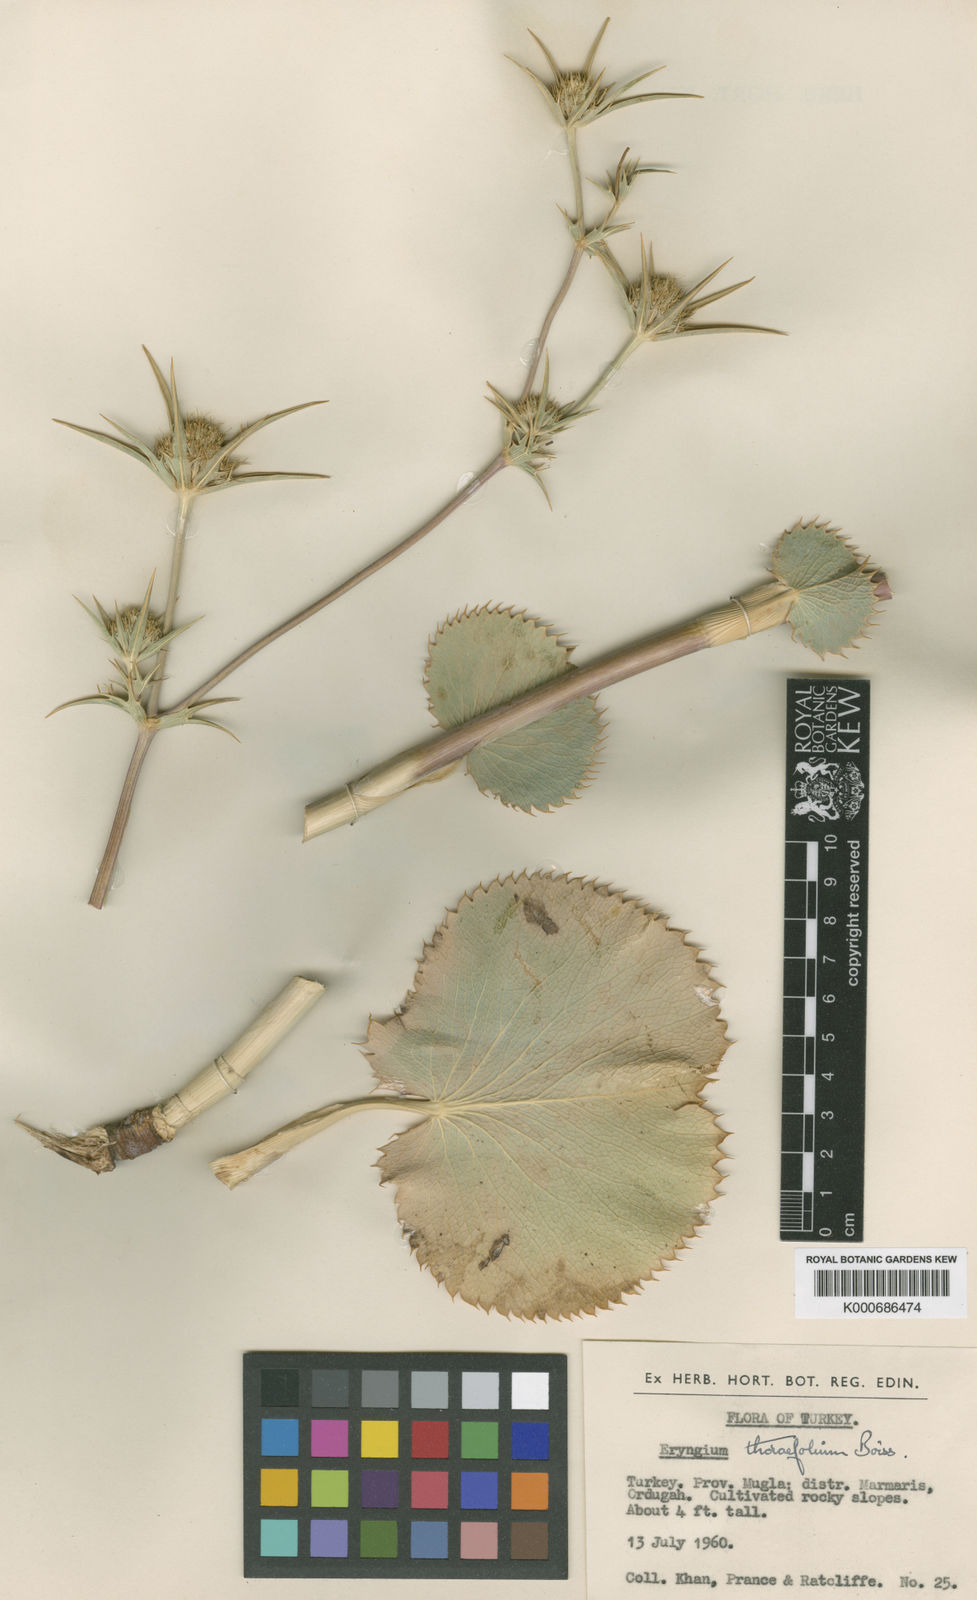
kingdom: Plantae
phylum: Tracheophyta
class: Magnoliopsida
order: Apiales
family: Apiaceae
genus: Eryngium
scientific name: Eryngium thorifolium
